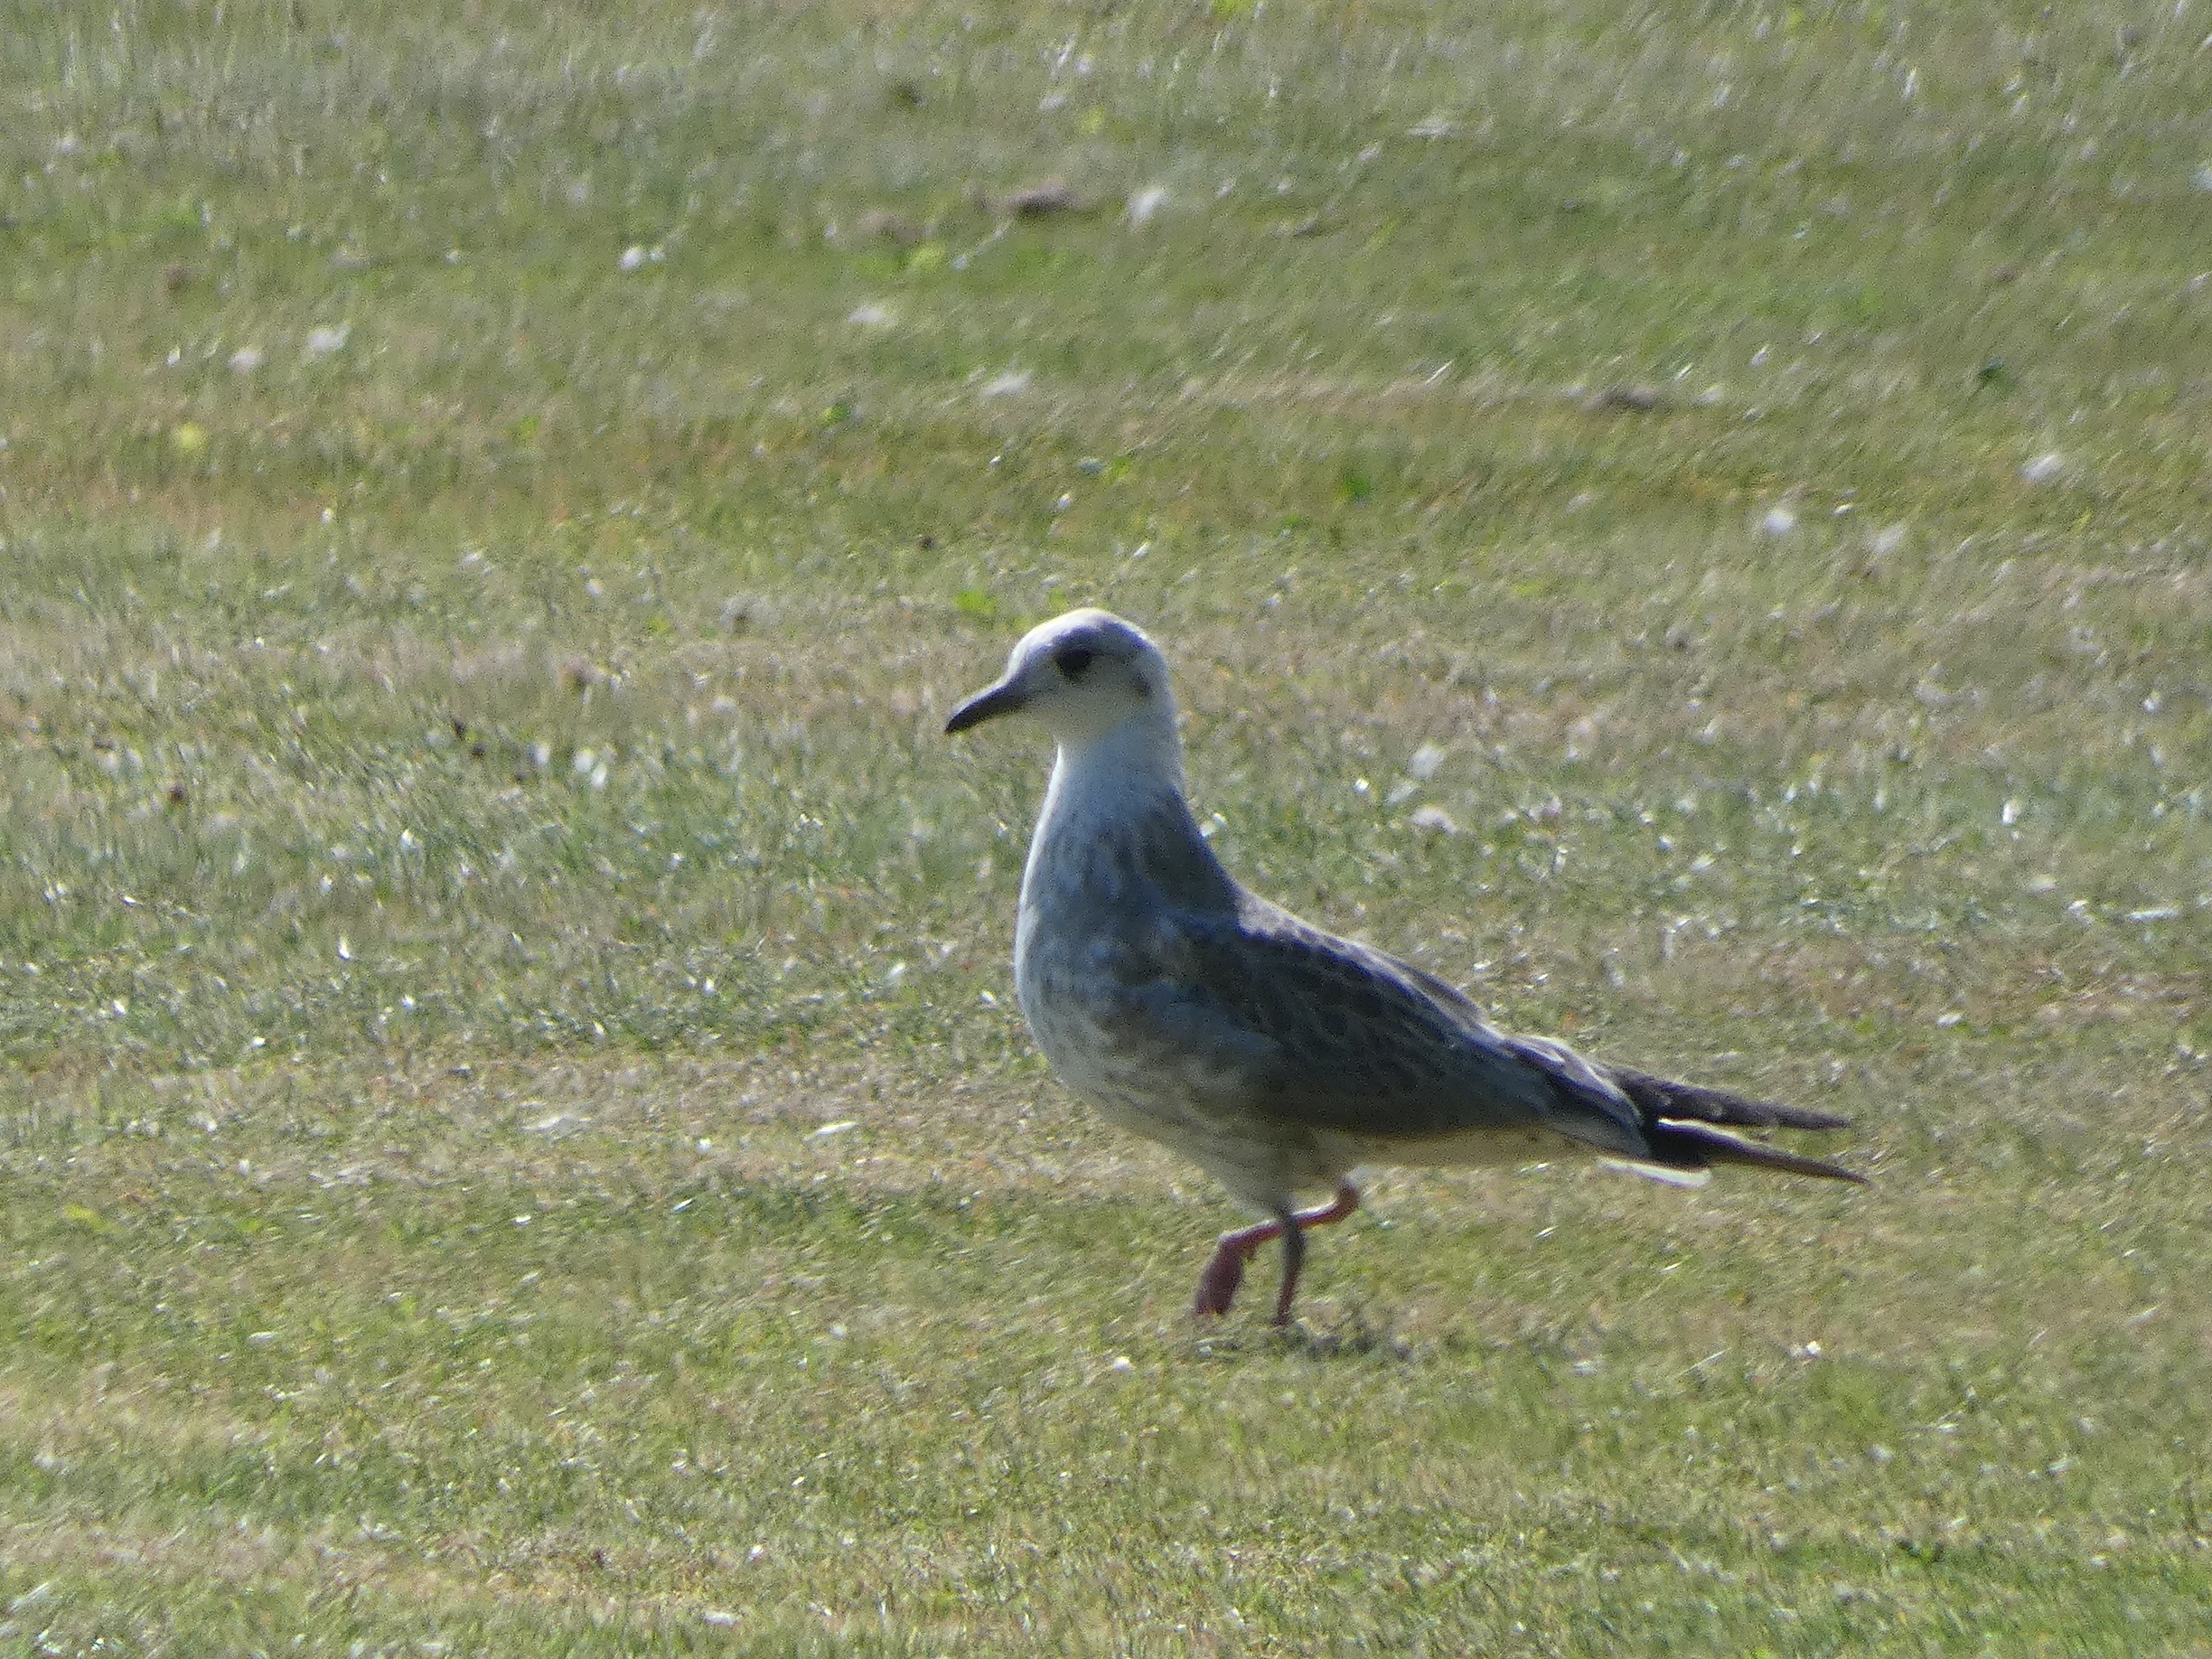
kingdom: Animalia
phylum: Chordata
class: Aves
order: Charadriiformes
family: Laridae
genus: Chroicocephalus
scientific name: Chroicocephalus ridibundus
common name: Hættemåge
